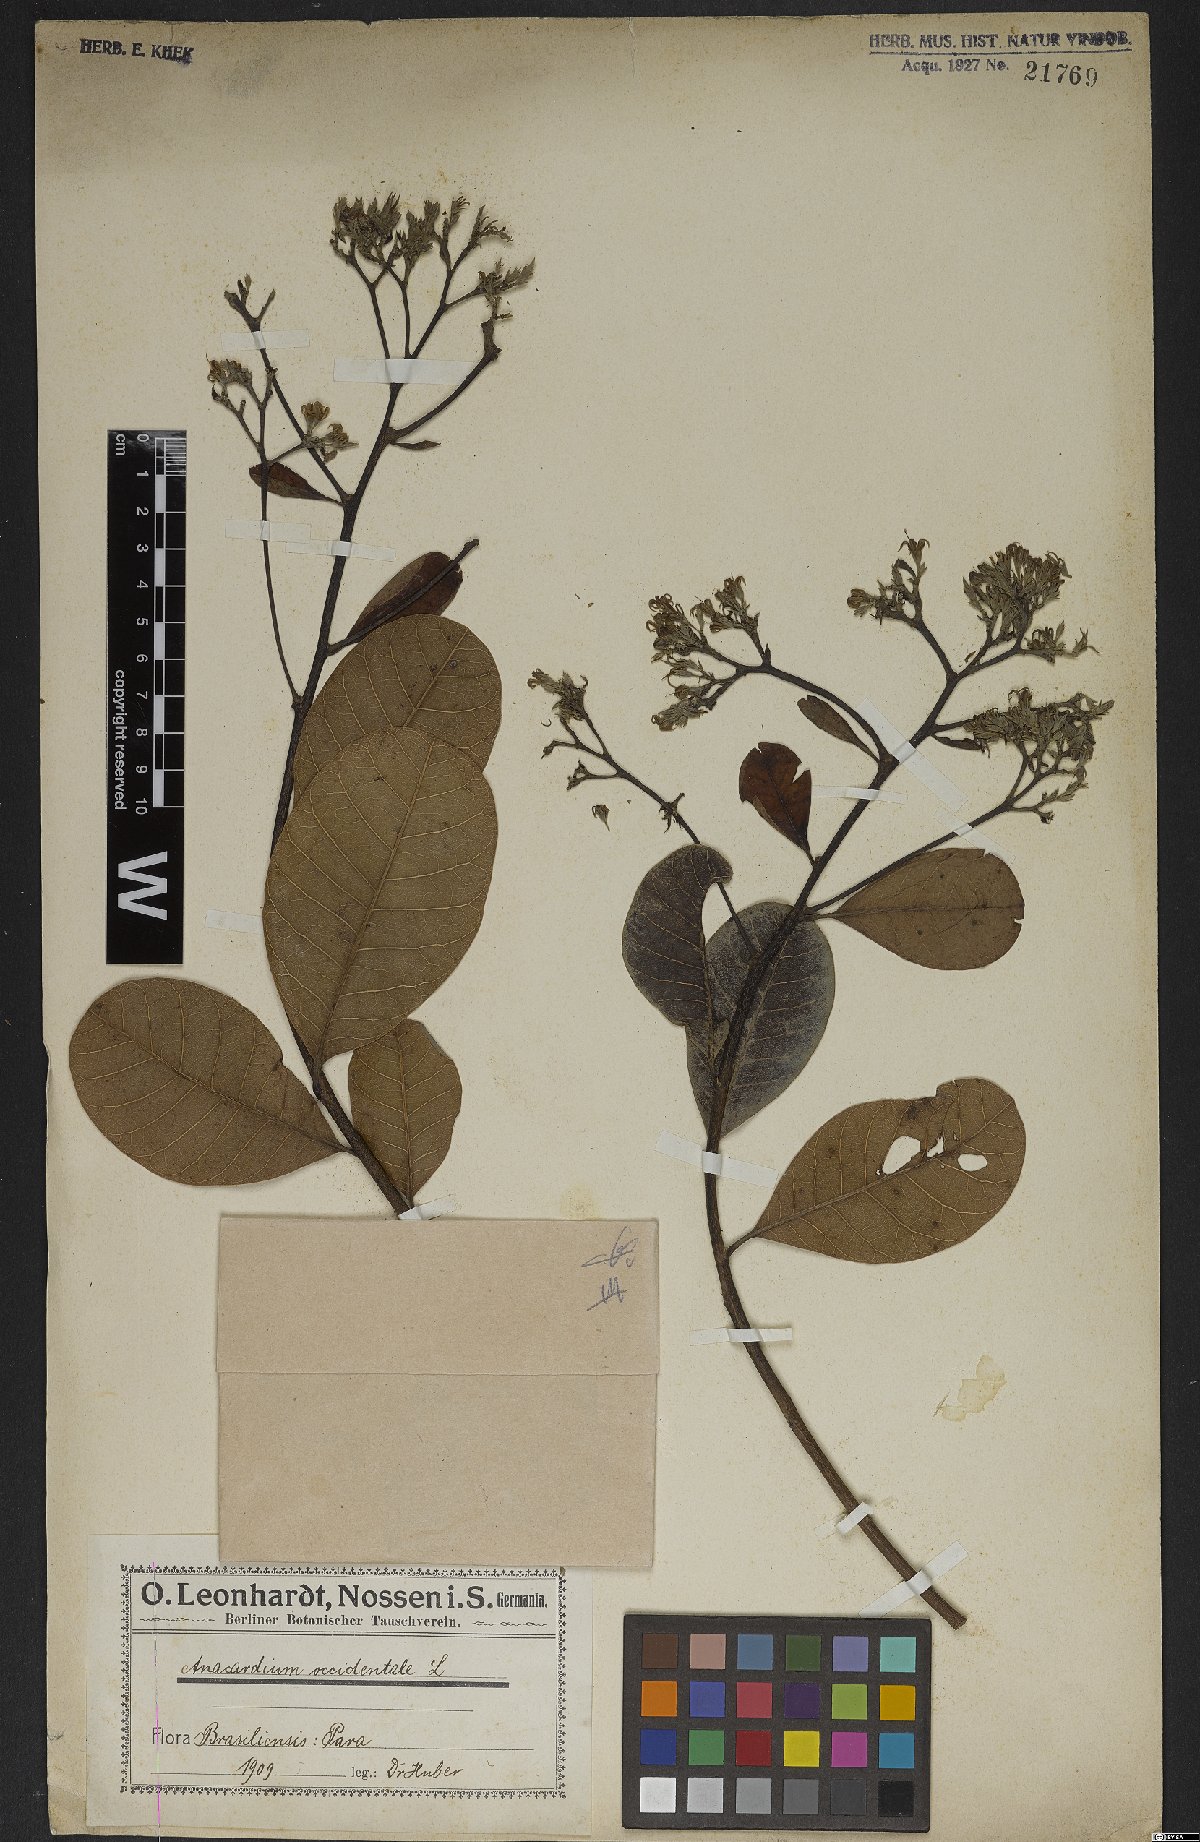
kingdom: Plantae
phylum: Tracheophyta
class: Magnoliopsida
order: Sapindales
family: Anacardiaceae
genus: Anacardium
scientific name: Anacardium occidentale
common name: Cashew
